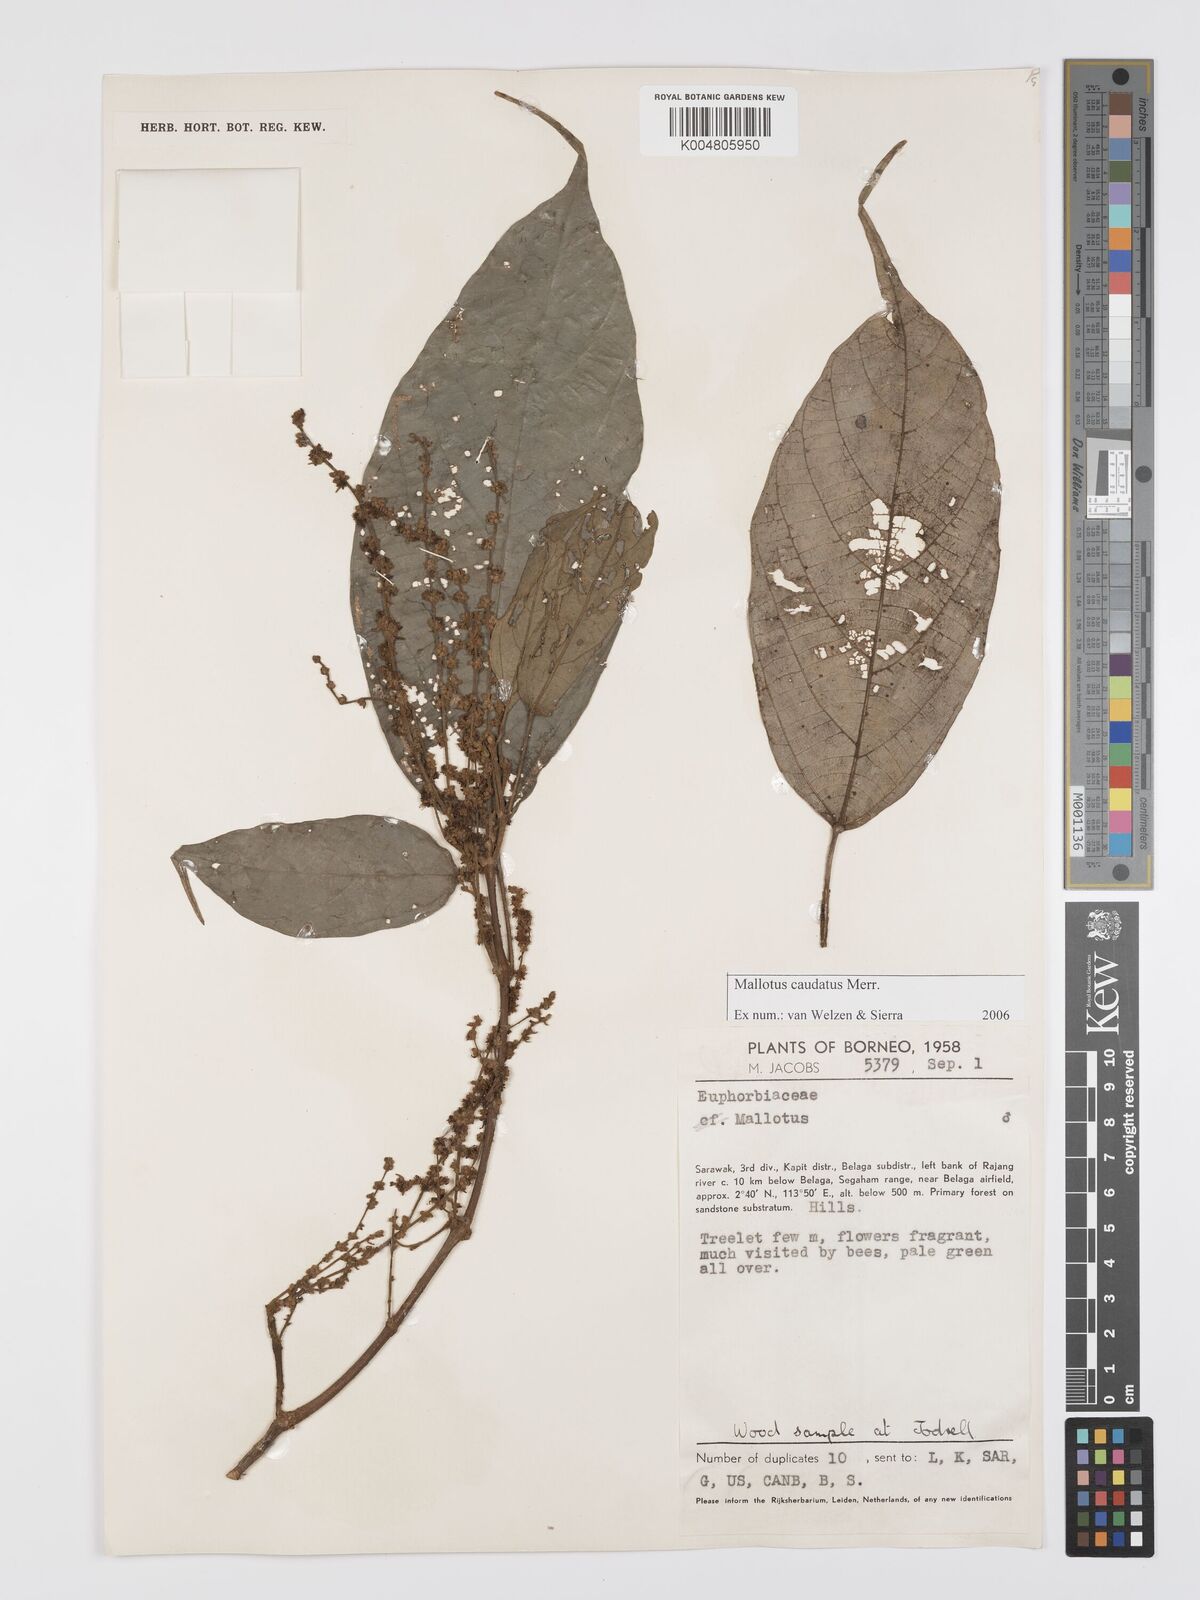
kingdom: Plantae
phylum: Tracheophyta
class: Magnoliopsida
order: Malpighiales
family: Euphorbiaceae
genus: Mallotus
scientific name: Mallotus caudatus
